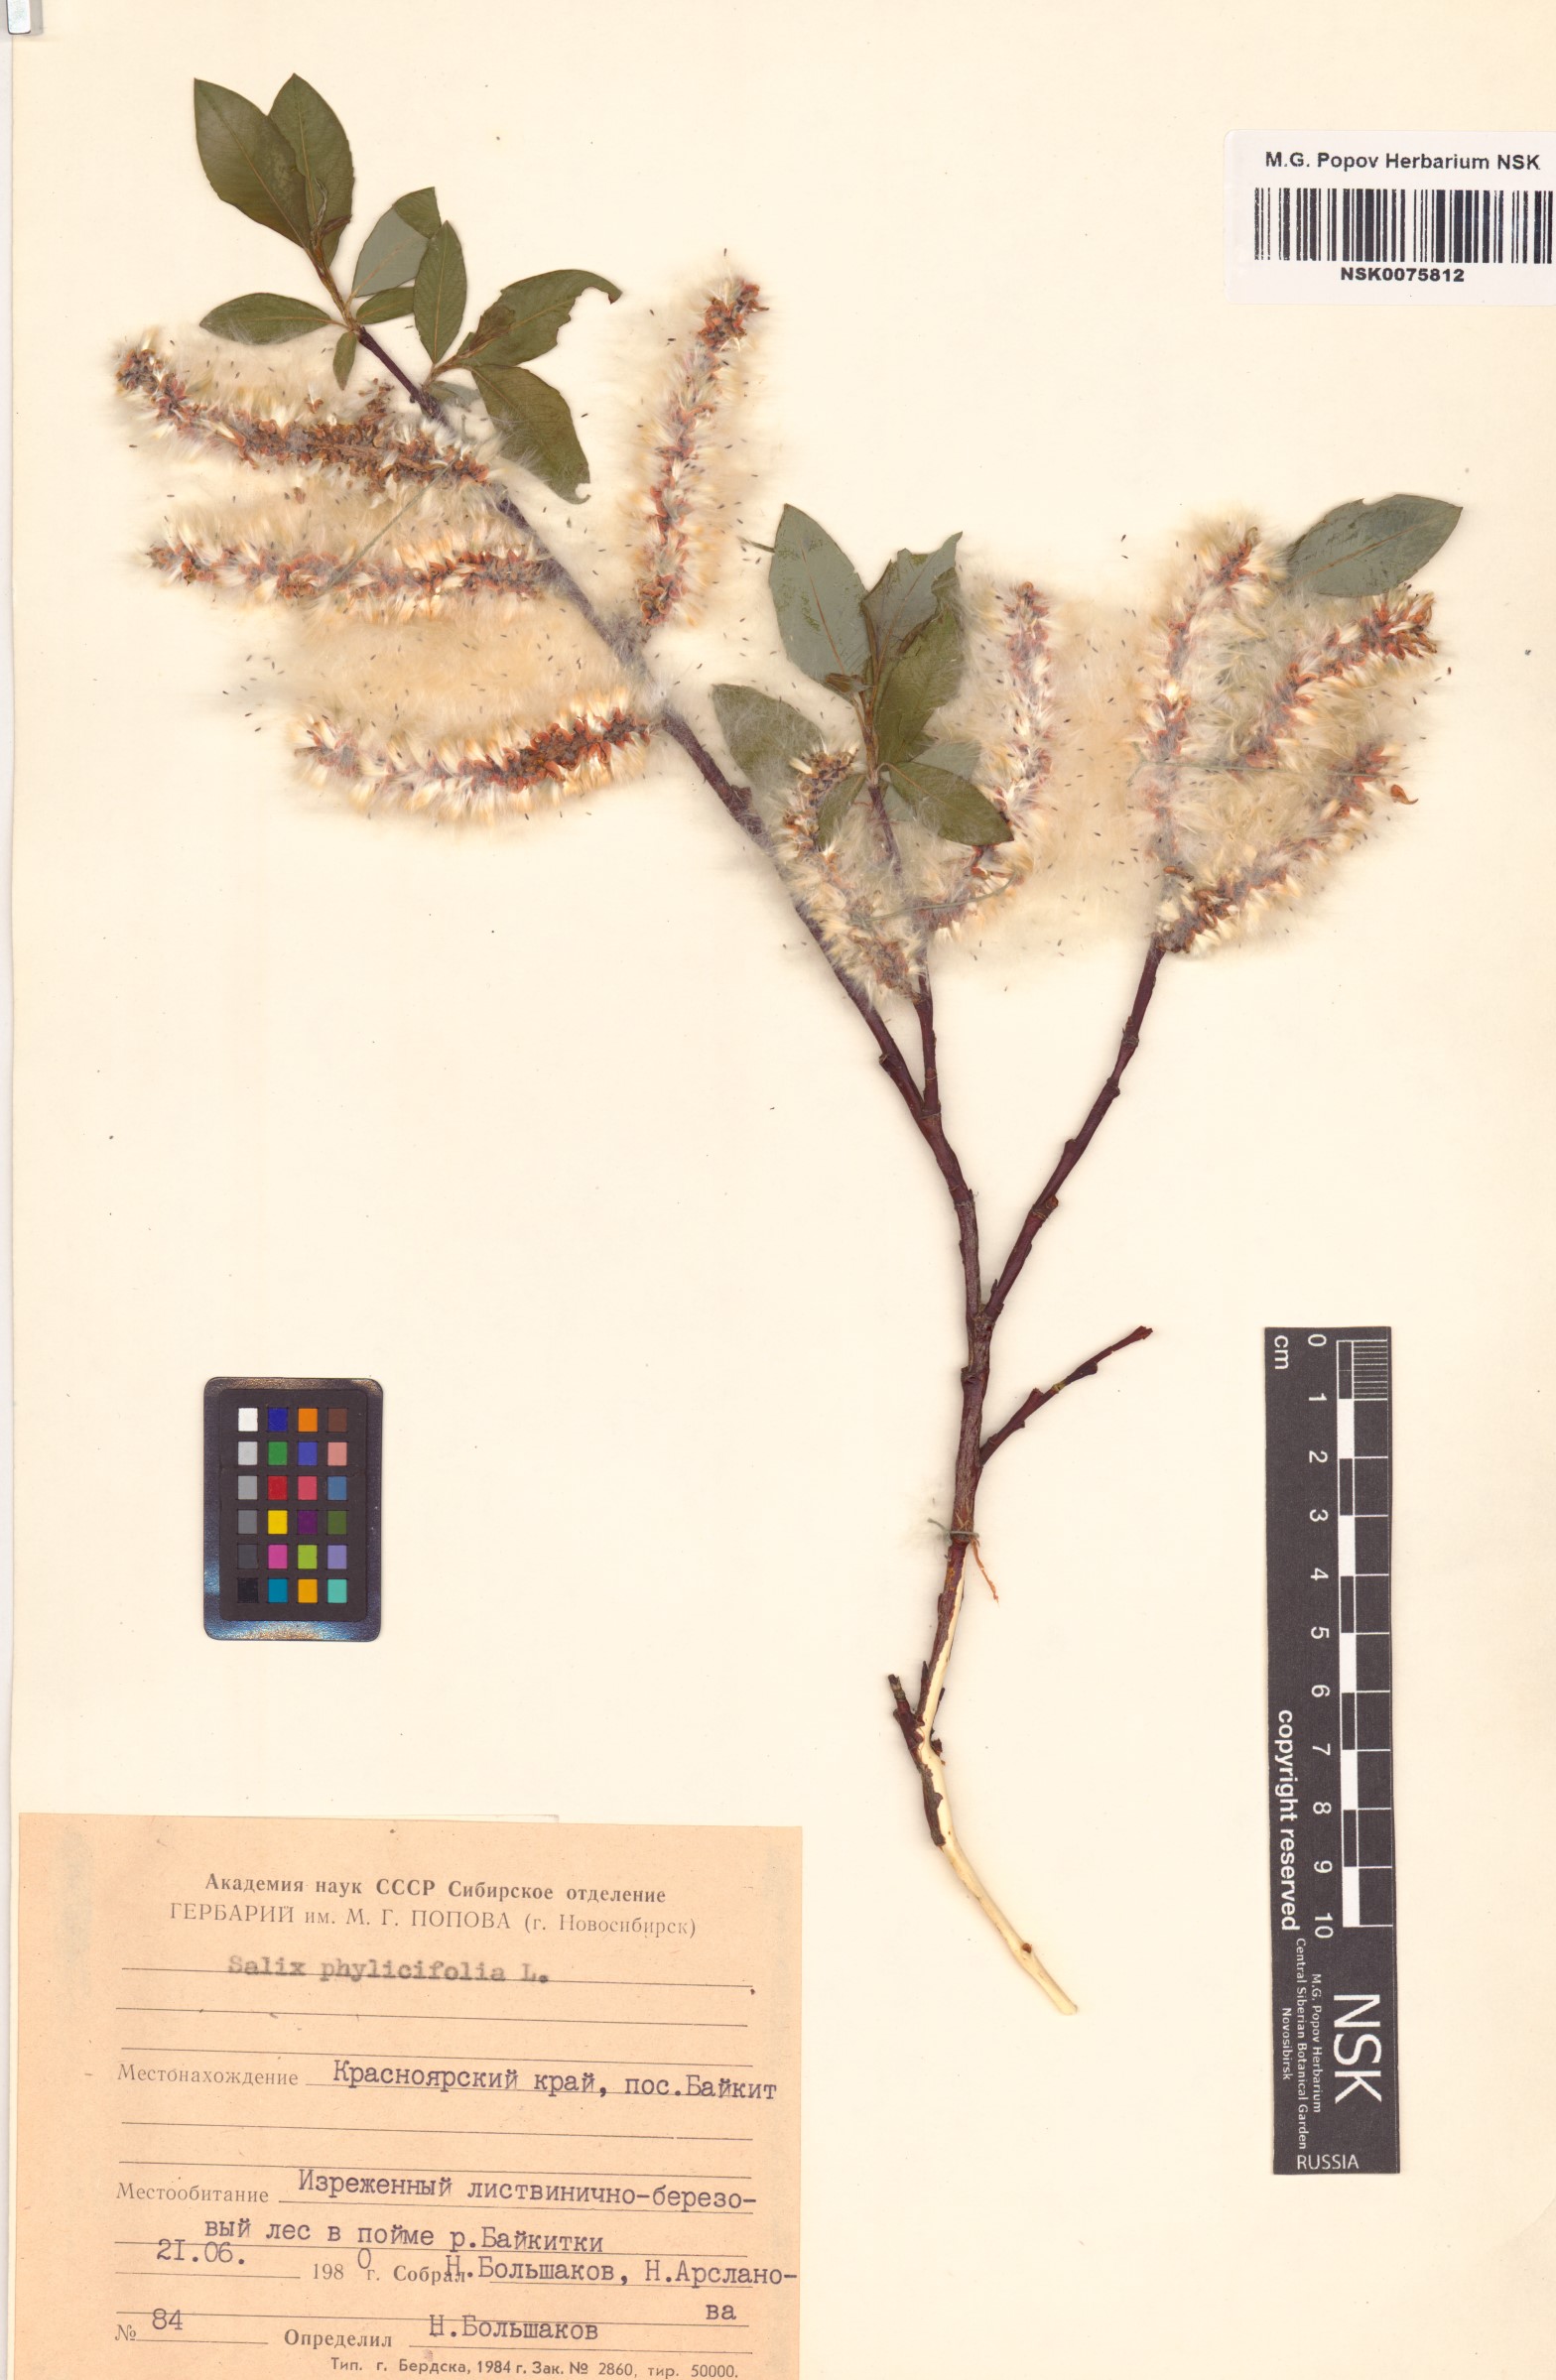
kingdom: Plantae
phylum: Tracheophyta
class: Magnoliopsida
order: Malpighiales
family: Salicaceae
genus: Salix
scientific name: Salix phylicifolia
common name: Tea-leaved willow
